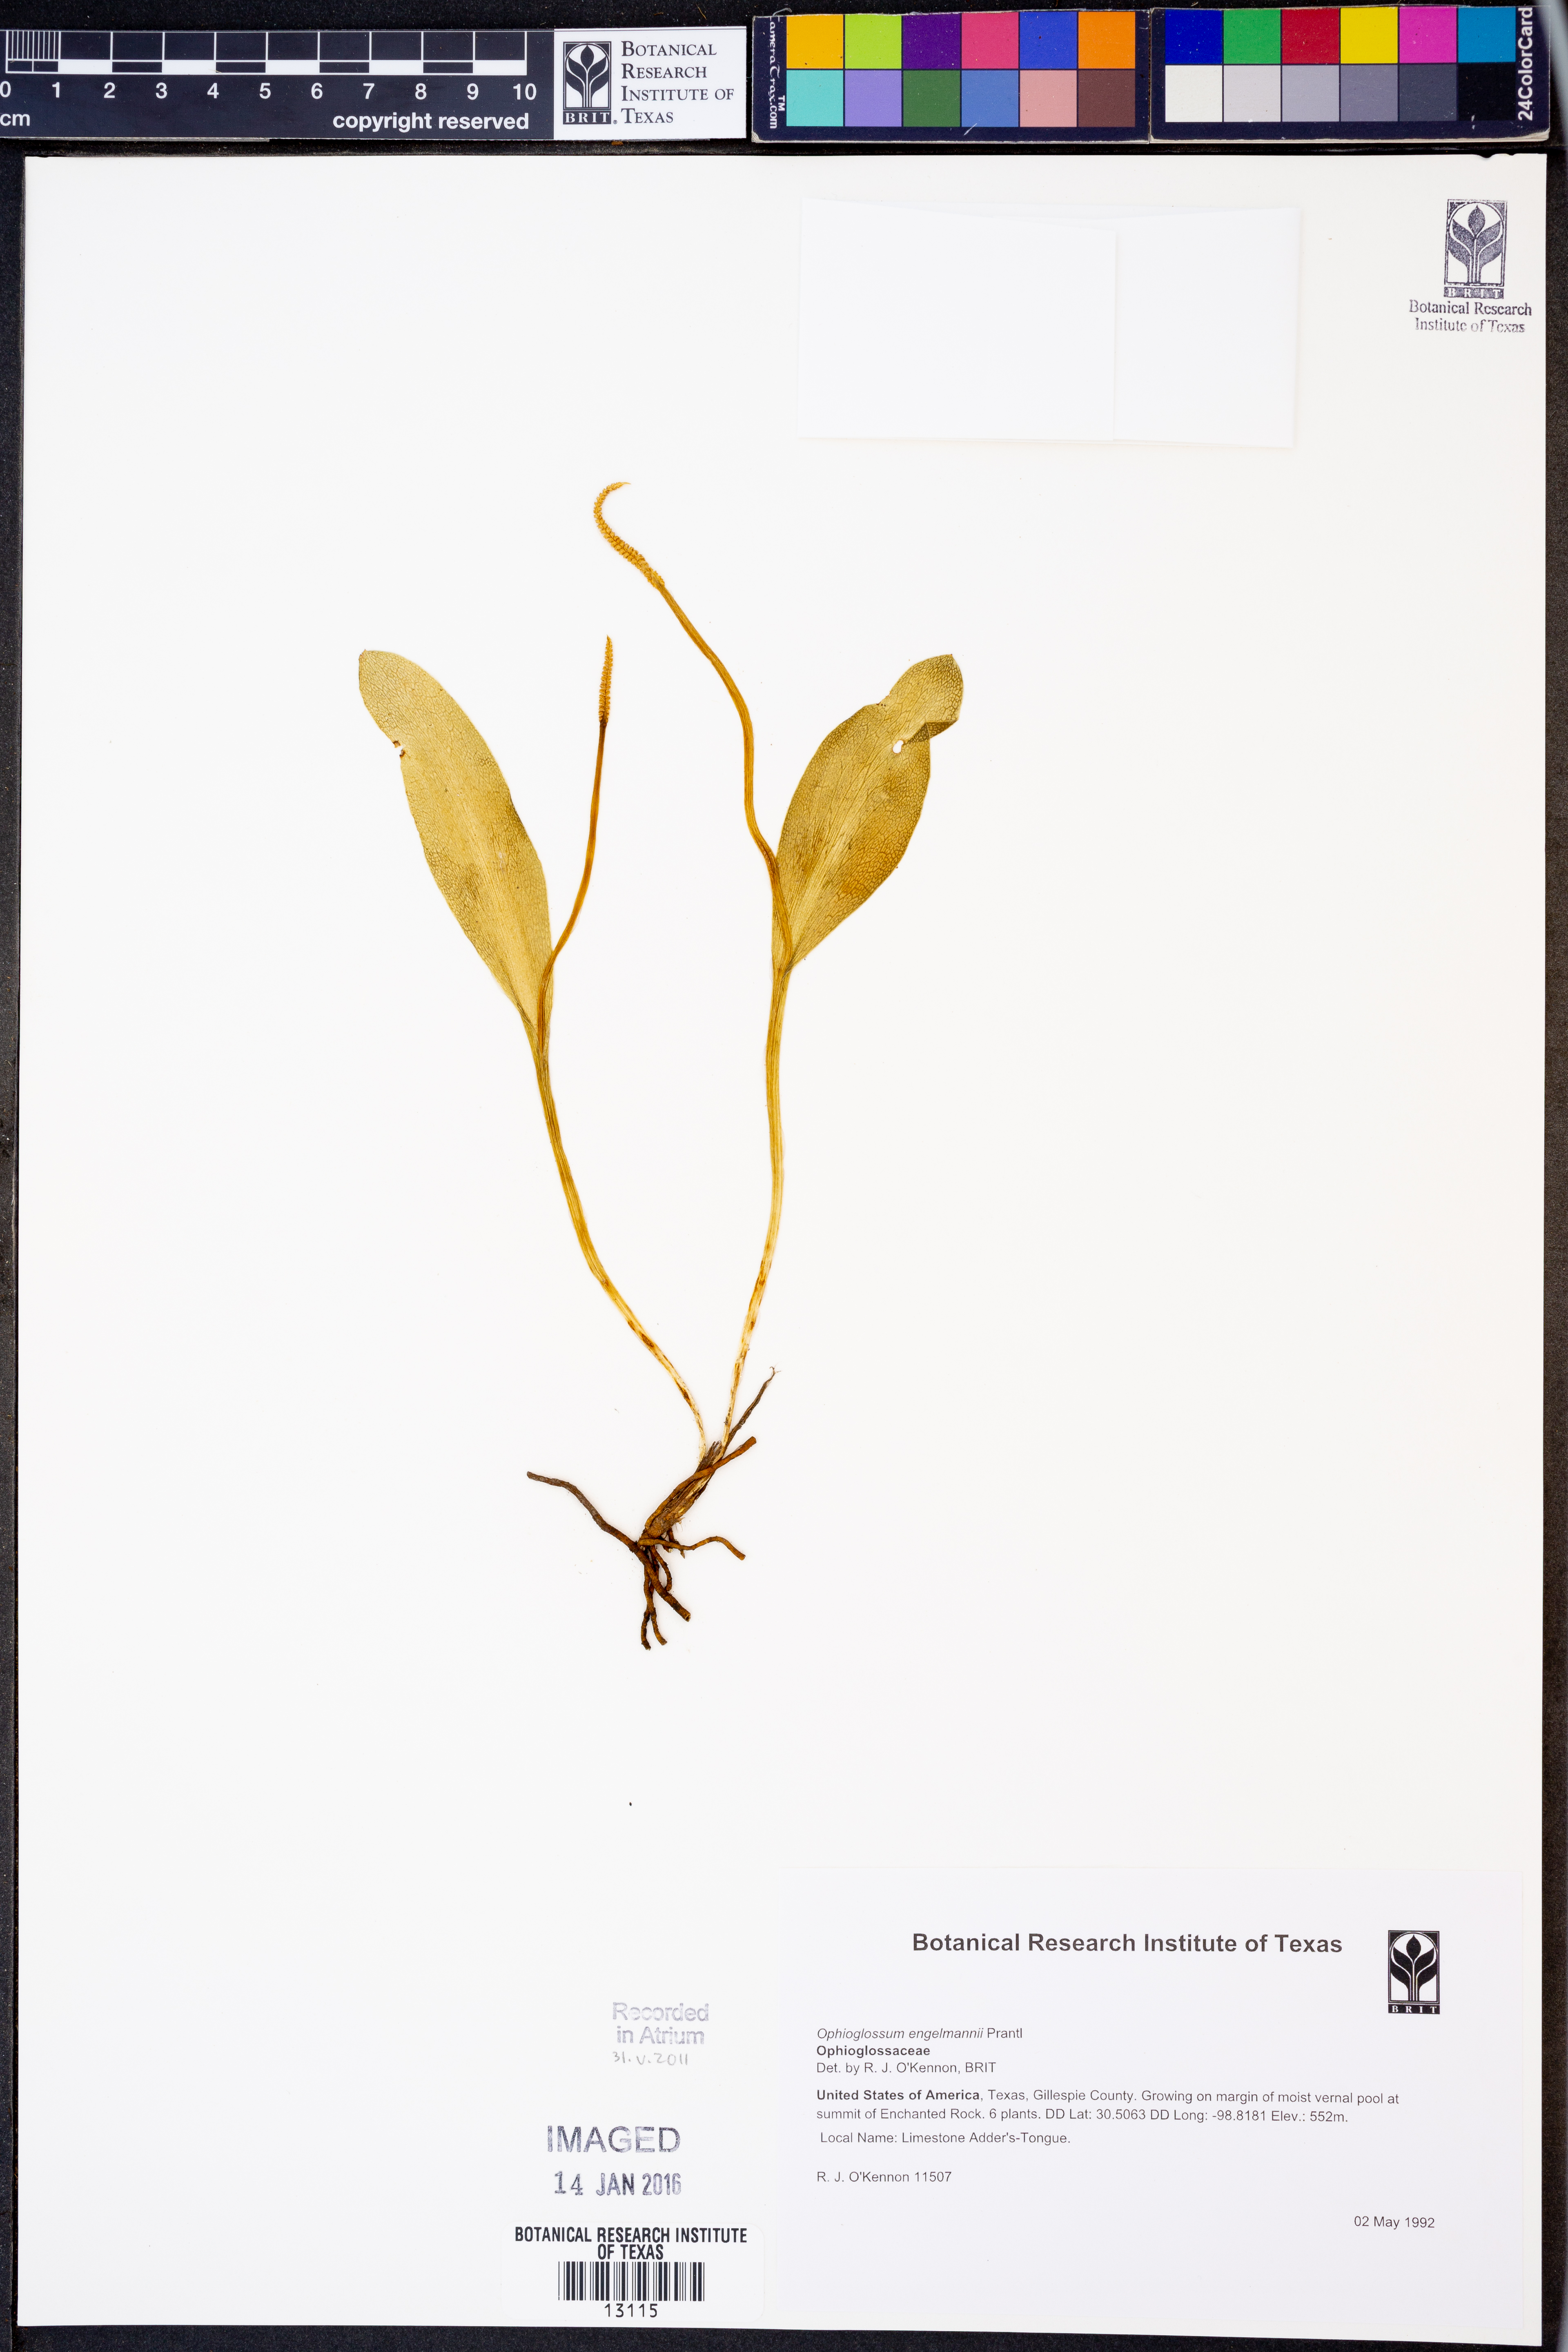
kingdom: Plantae
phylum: Tracheophyta
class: Polypodiopsida
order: Ophioglossales
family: Ophioglossaceae
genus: Ophioglossum
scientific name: Ophioglossum engelmannii
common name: Limestone adder's-tongue
